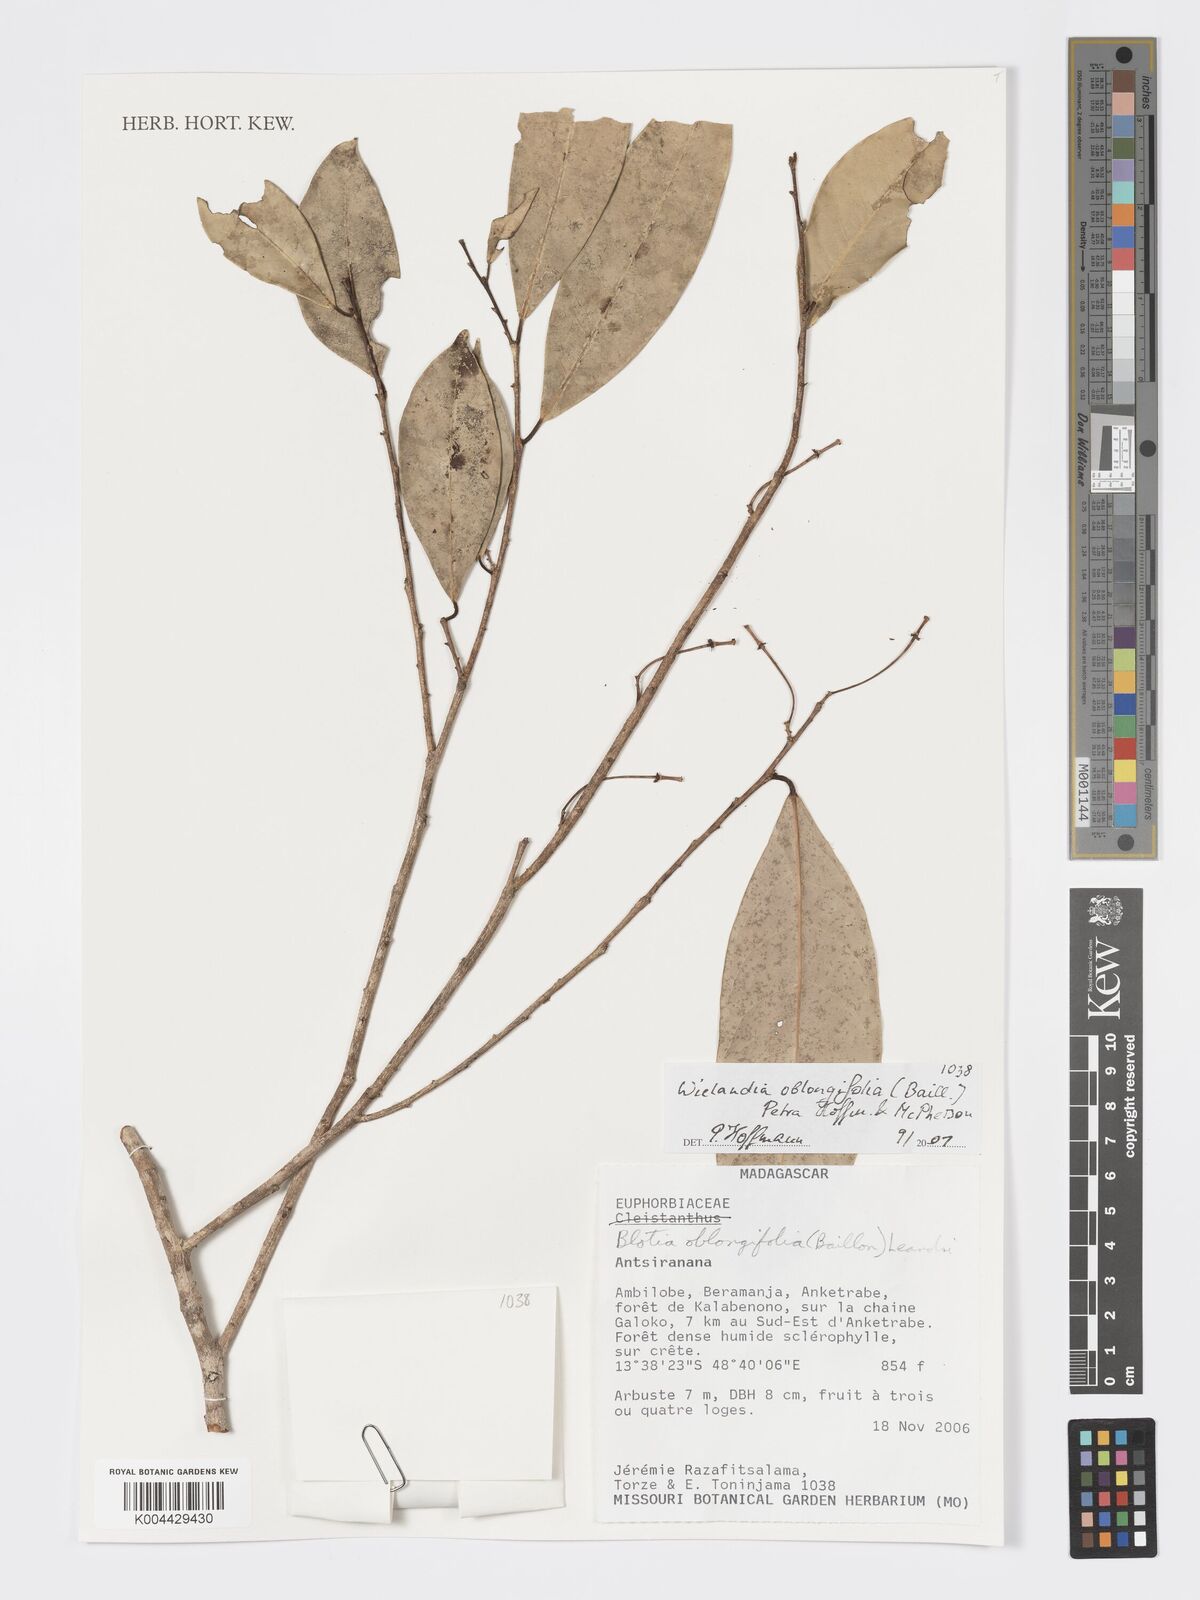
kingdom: Plantae
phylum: Tracheophyta
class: Magnoliopsida
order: Malpighiales
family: Phyllanthaceae
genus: Wielandia
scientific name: Wielandia oblongifolia
